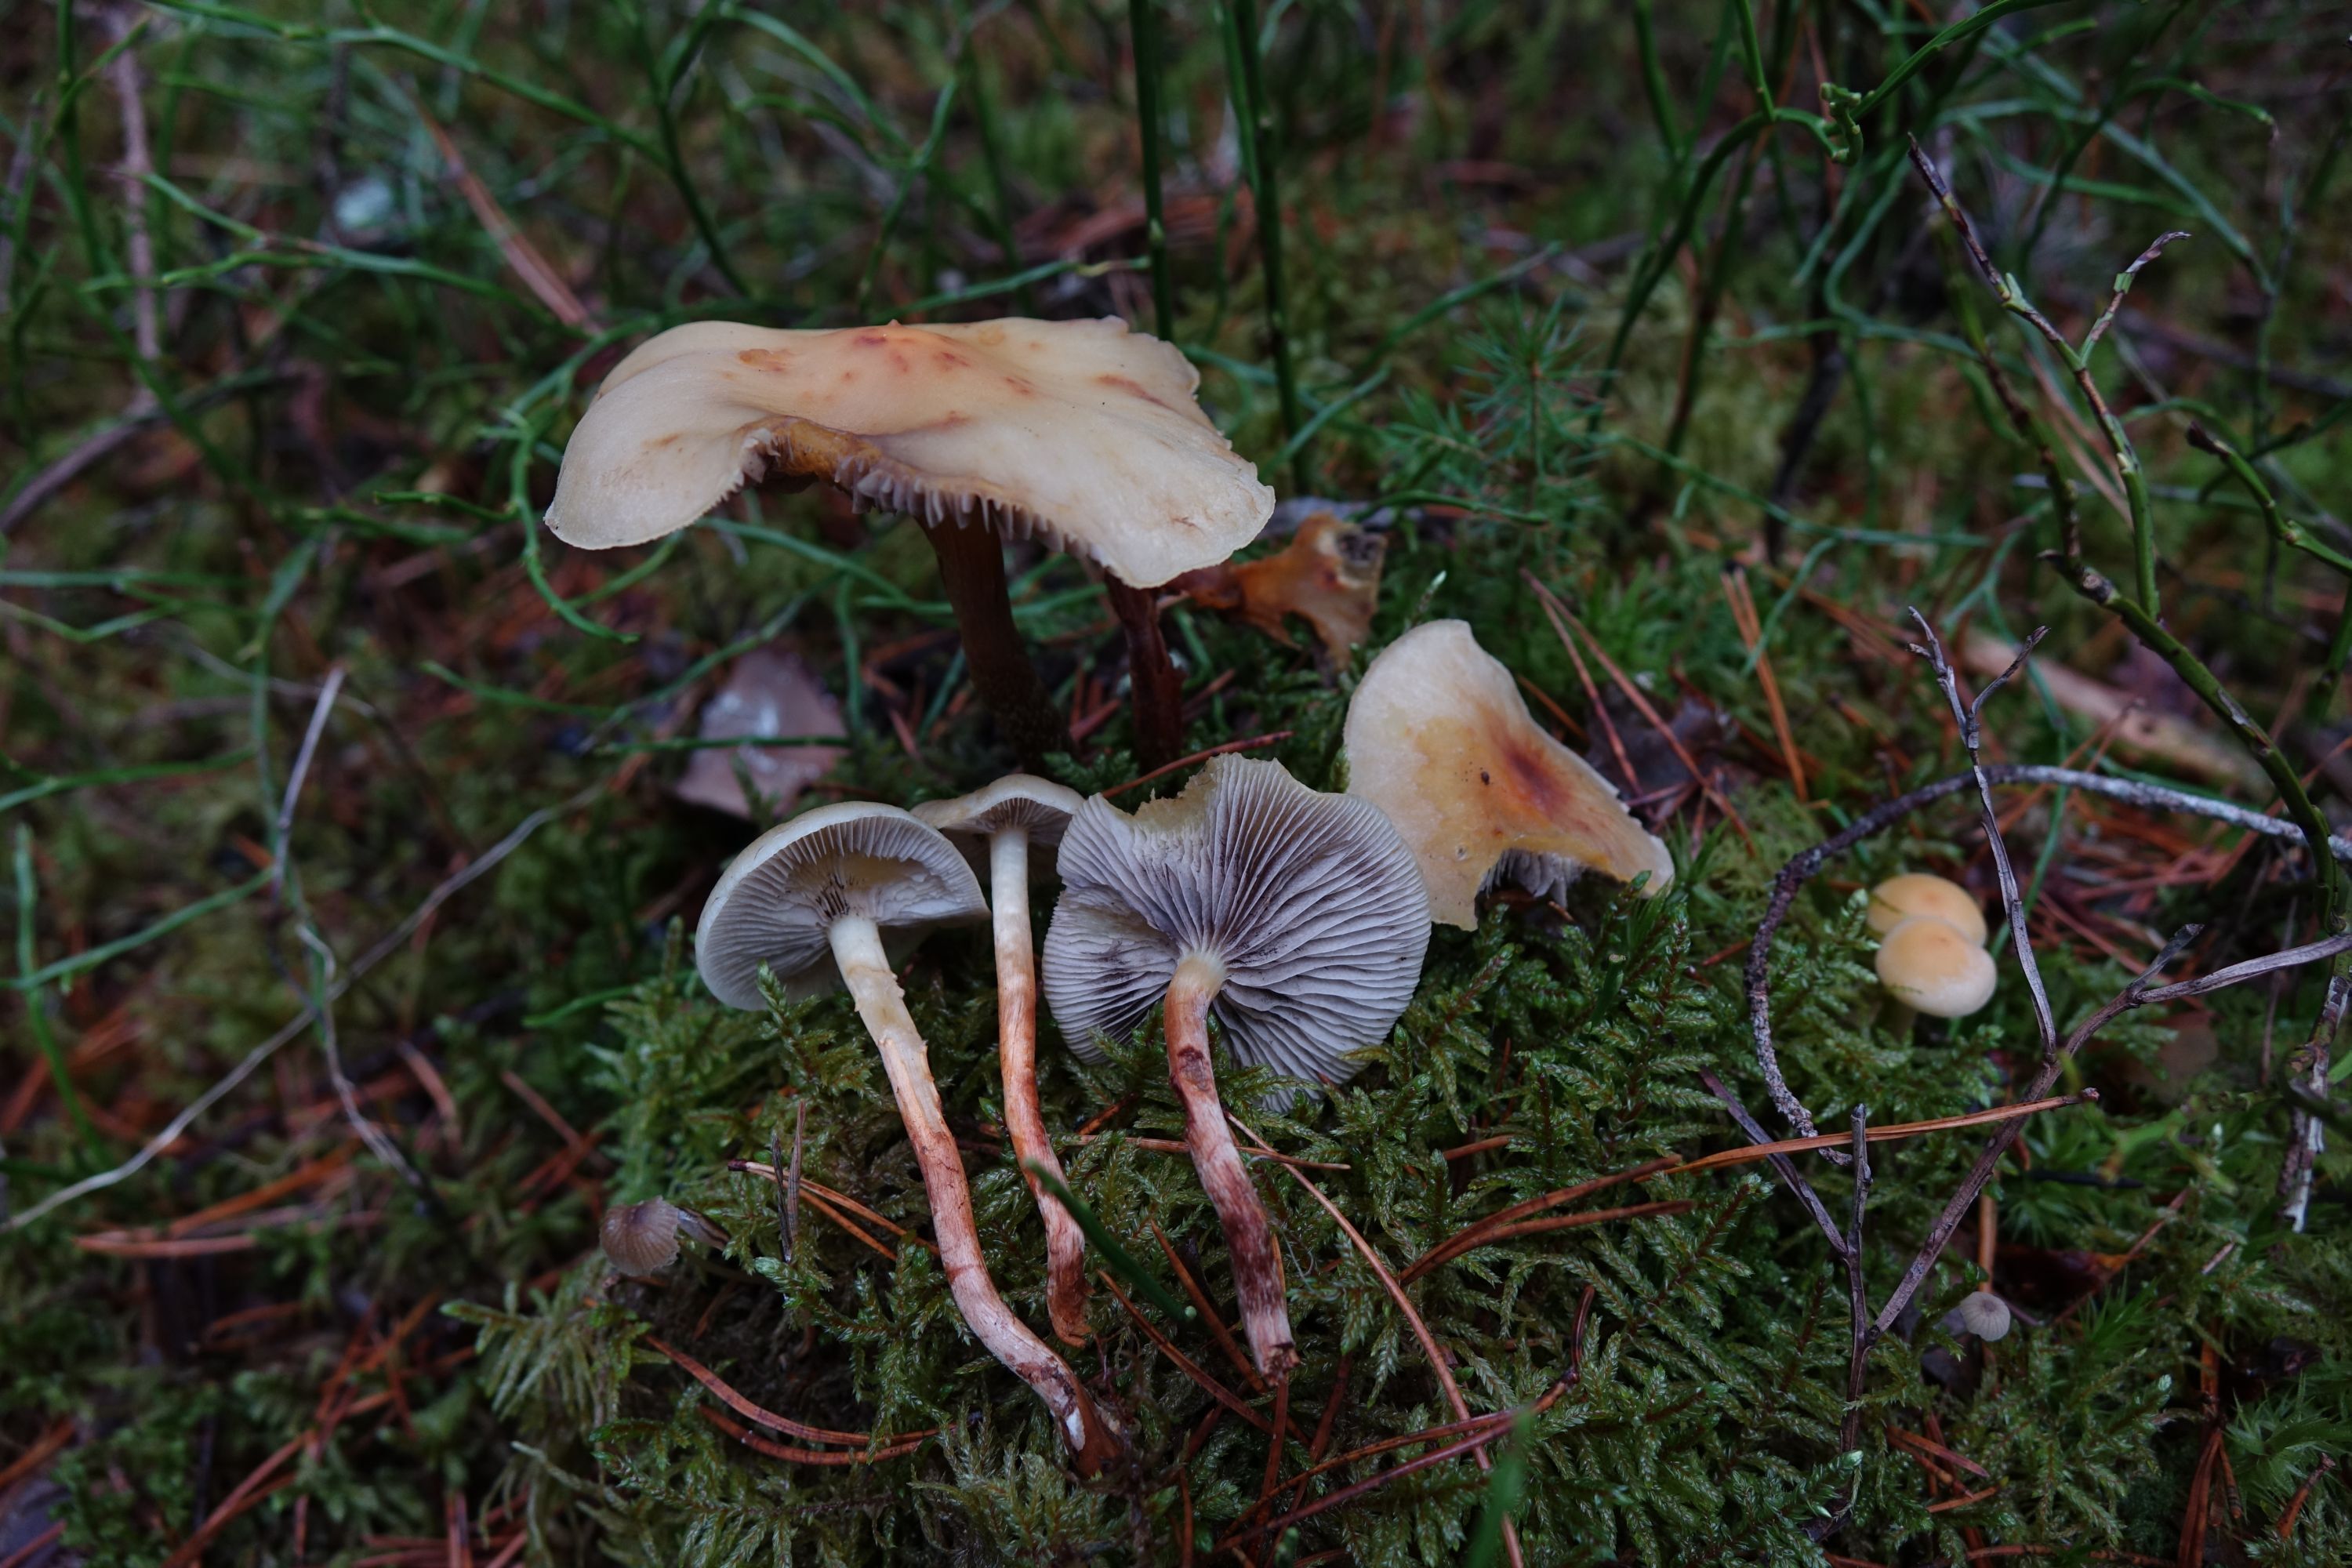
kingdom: Fungi
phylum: Basidiomycota
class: Agaricomycetes
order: Agaricales
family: Strophariaceae
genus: Hypholoma
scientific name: Hypholoma capnoides
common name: Conifer tuft
